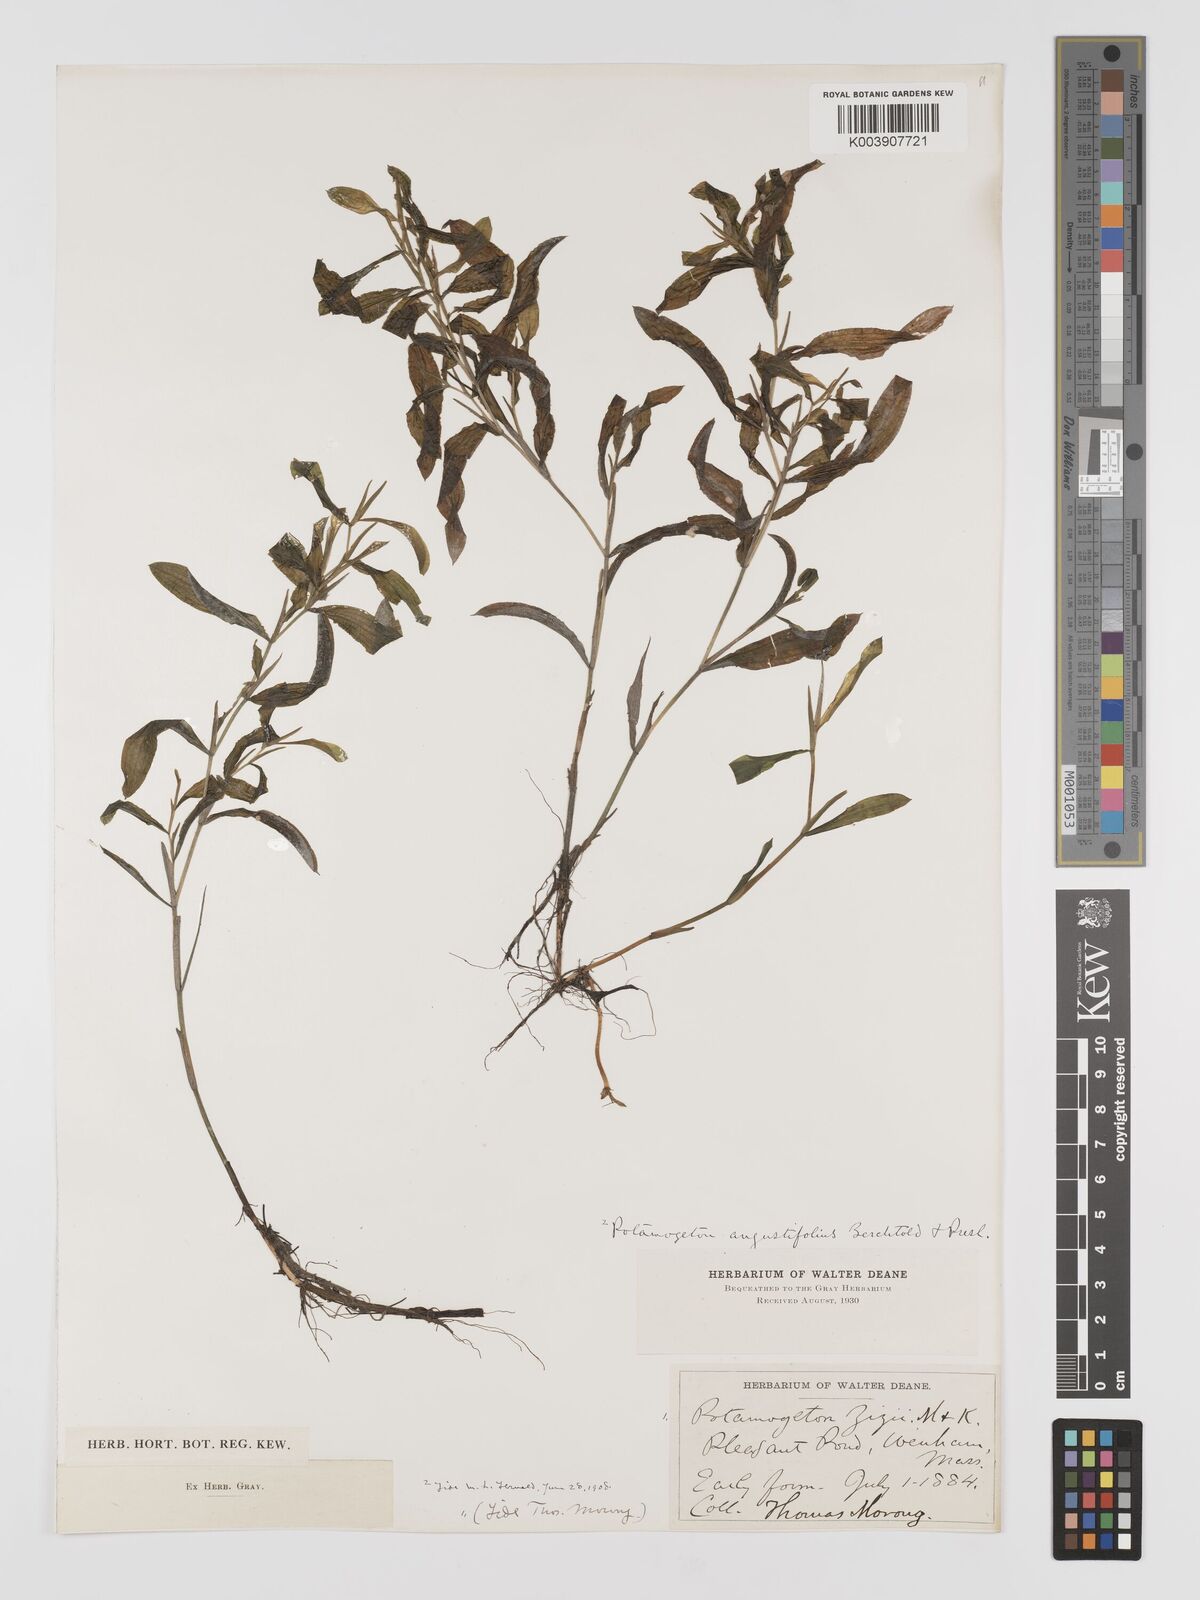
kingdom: Plantae
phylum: Tracheophyta
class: Liliopsida
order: Alismatales
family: Potamogetonaceae
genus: Potamogeton
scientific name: Potamogeton lucens
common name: Shining pondweed
